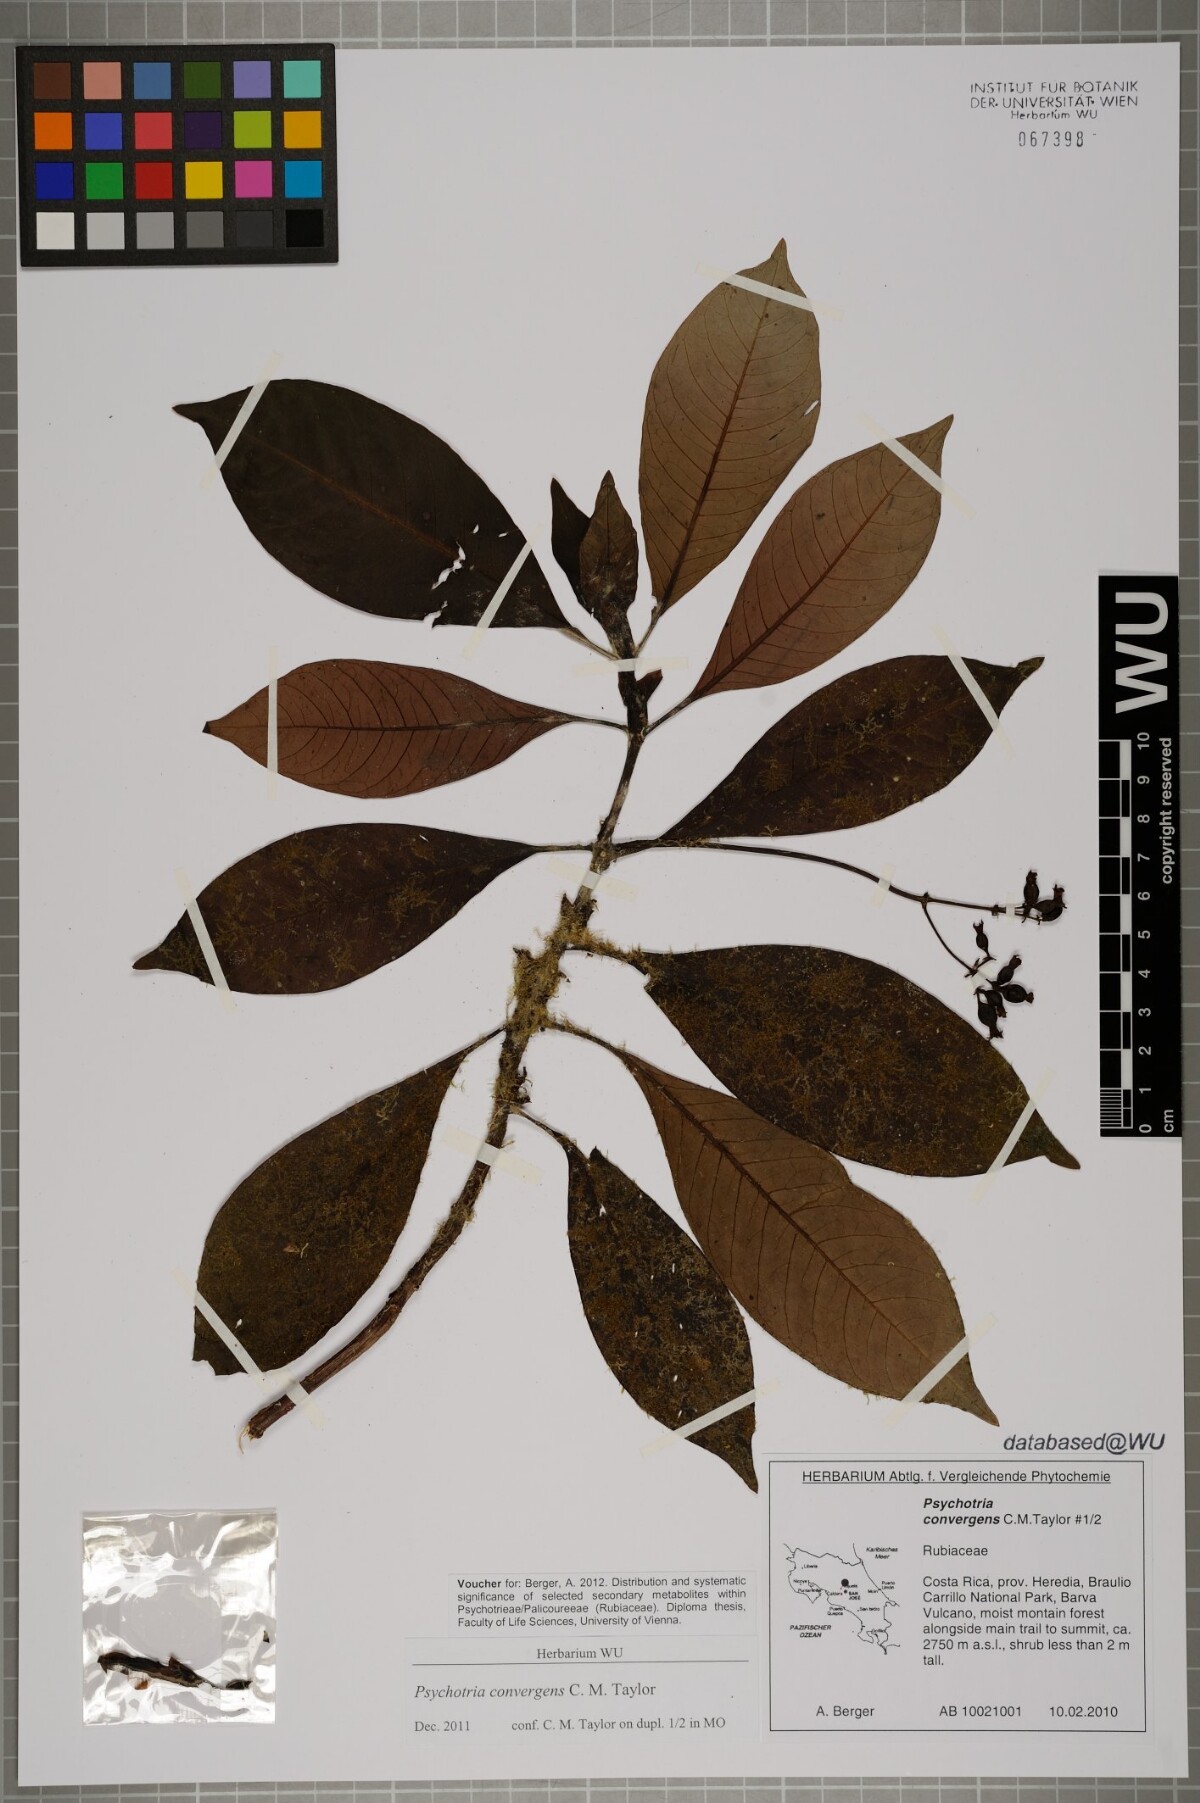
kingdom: Plantae
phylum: Tracheophyta
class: Magnoliopsida
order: Gentianales
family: Rubiaceae
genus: Psychotria
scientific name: Psychotria convergens
